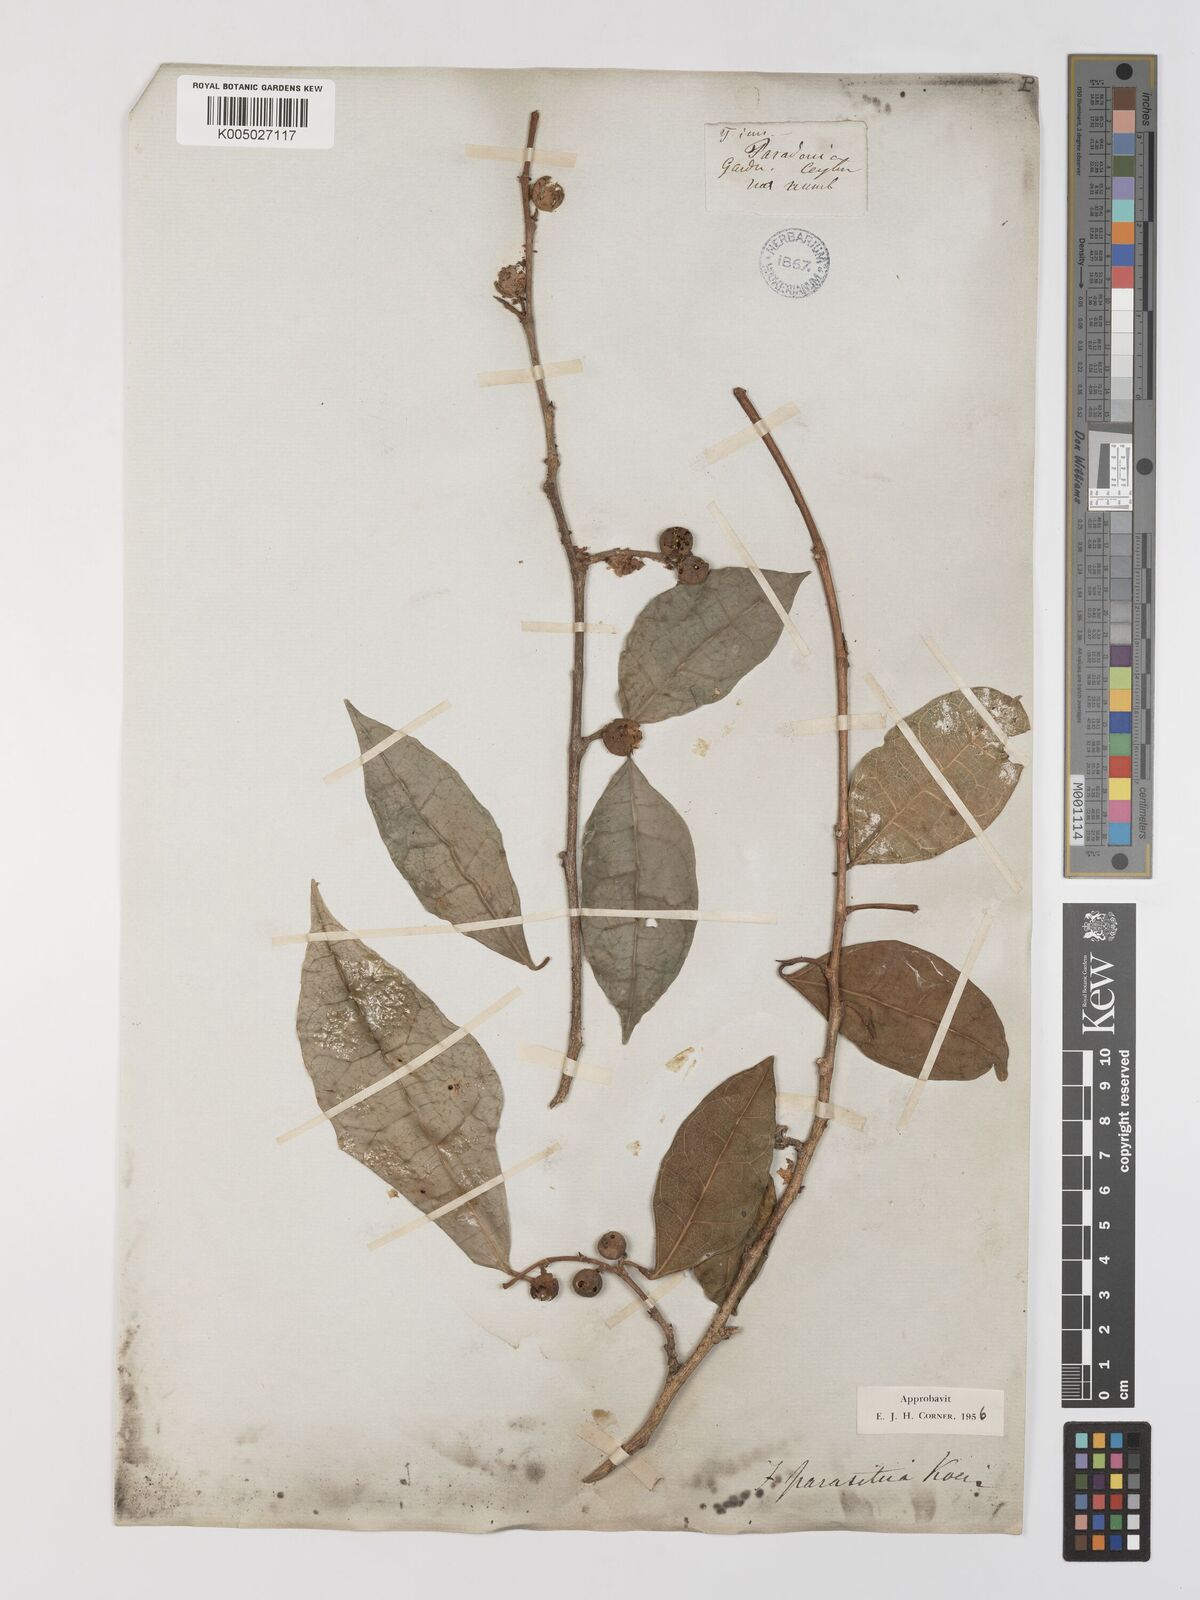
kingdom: Plantae
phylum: Tracheophyta
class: Magnoliopsida
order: Rosales
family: Moraceae
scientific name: Moraceae
